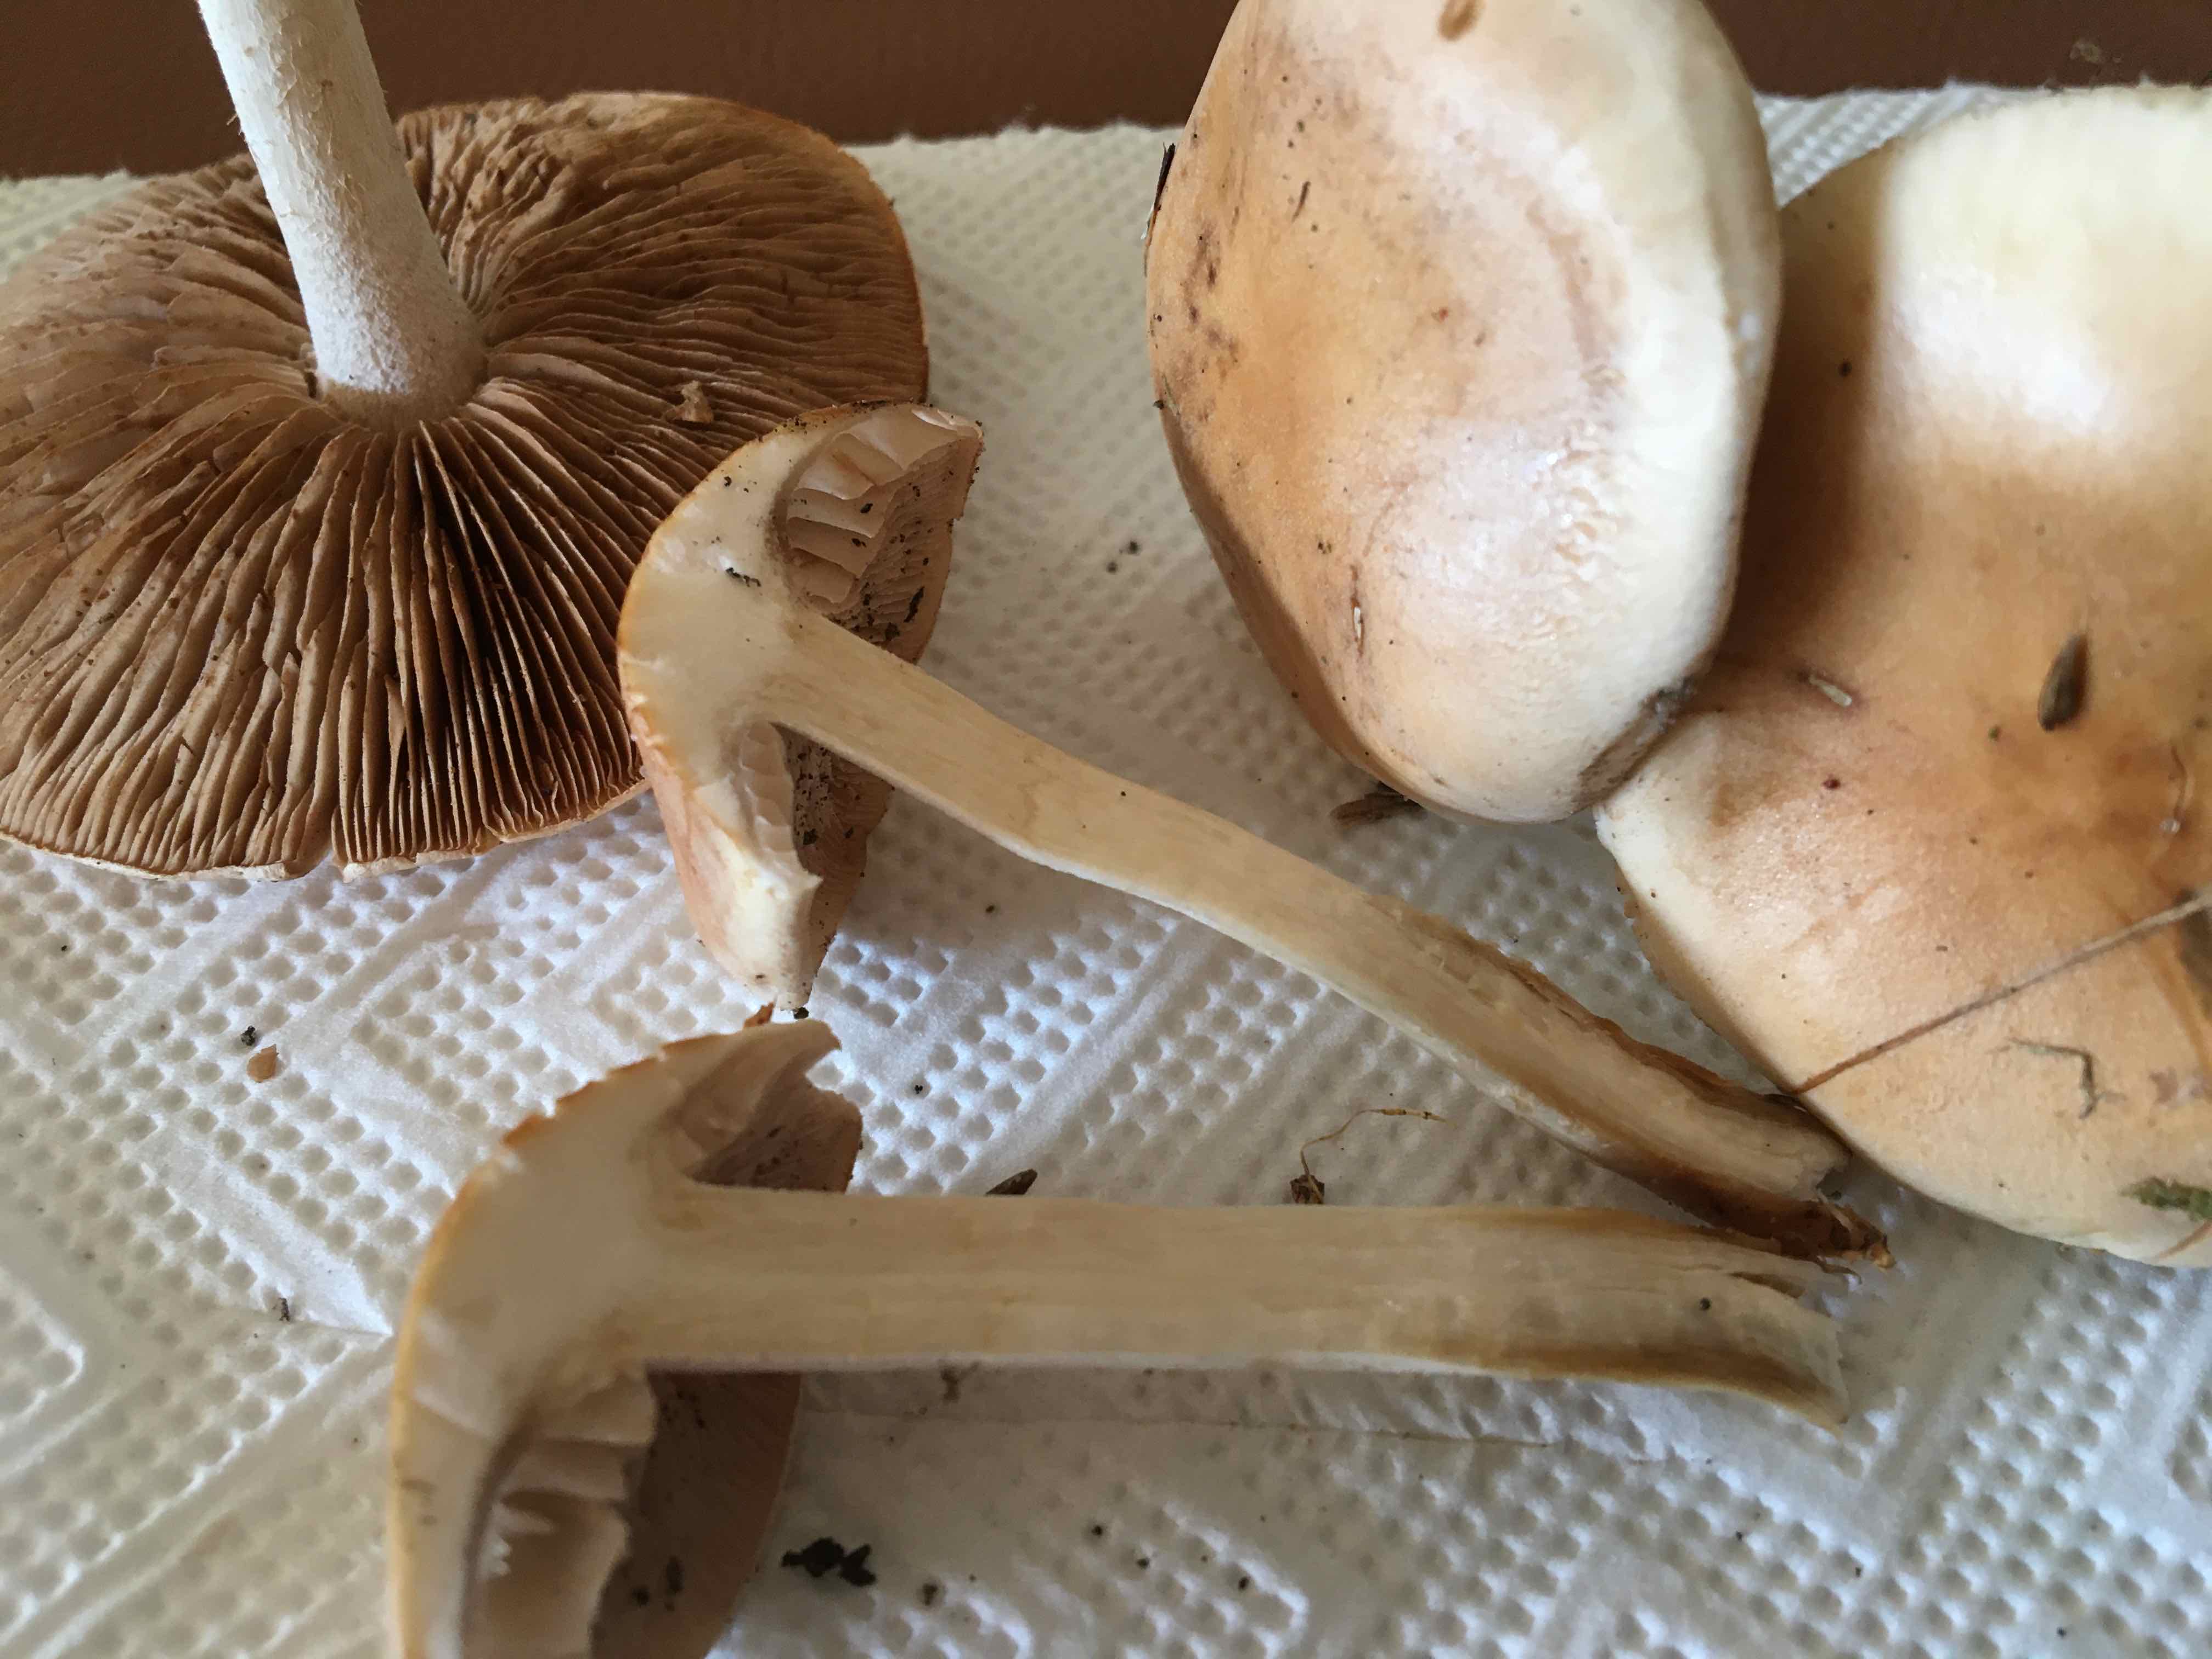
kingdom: Fungi
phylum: Basidiomycota
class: Agaricomycetes
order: Agaricales
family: Hymenogastraceae
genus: Hebeloma
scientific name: Hebeloma
